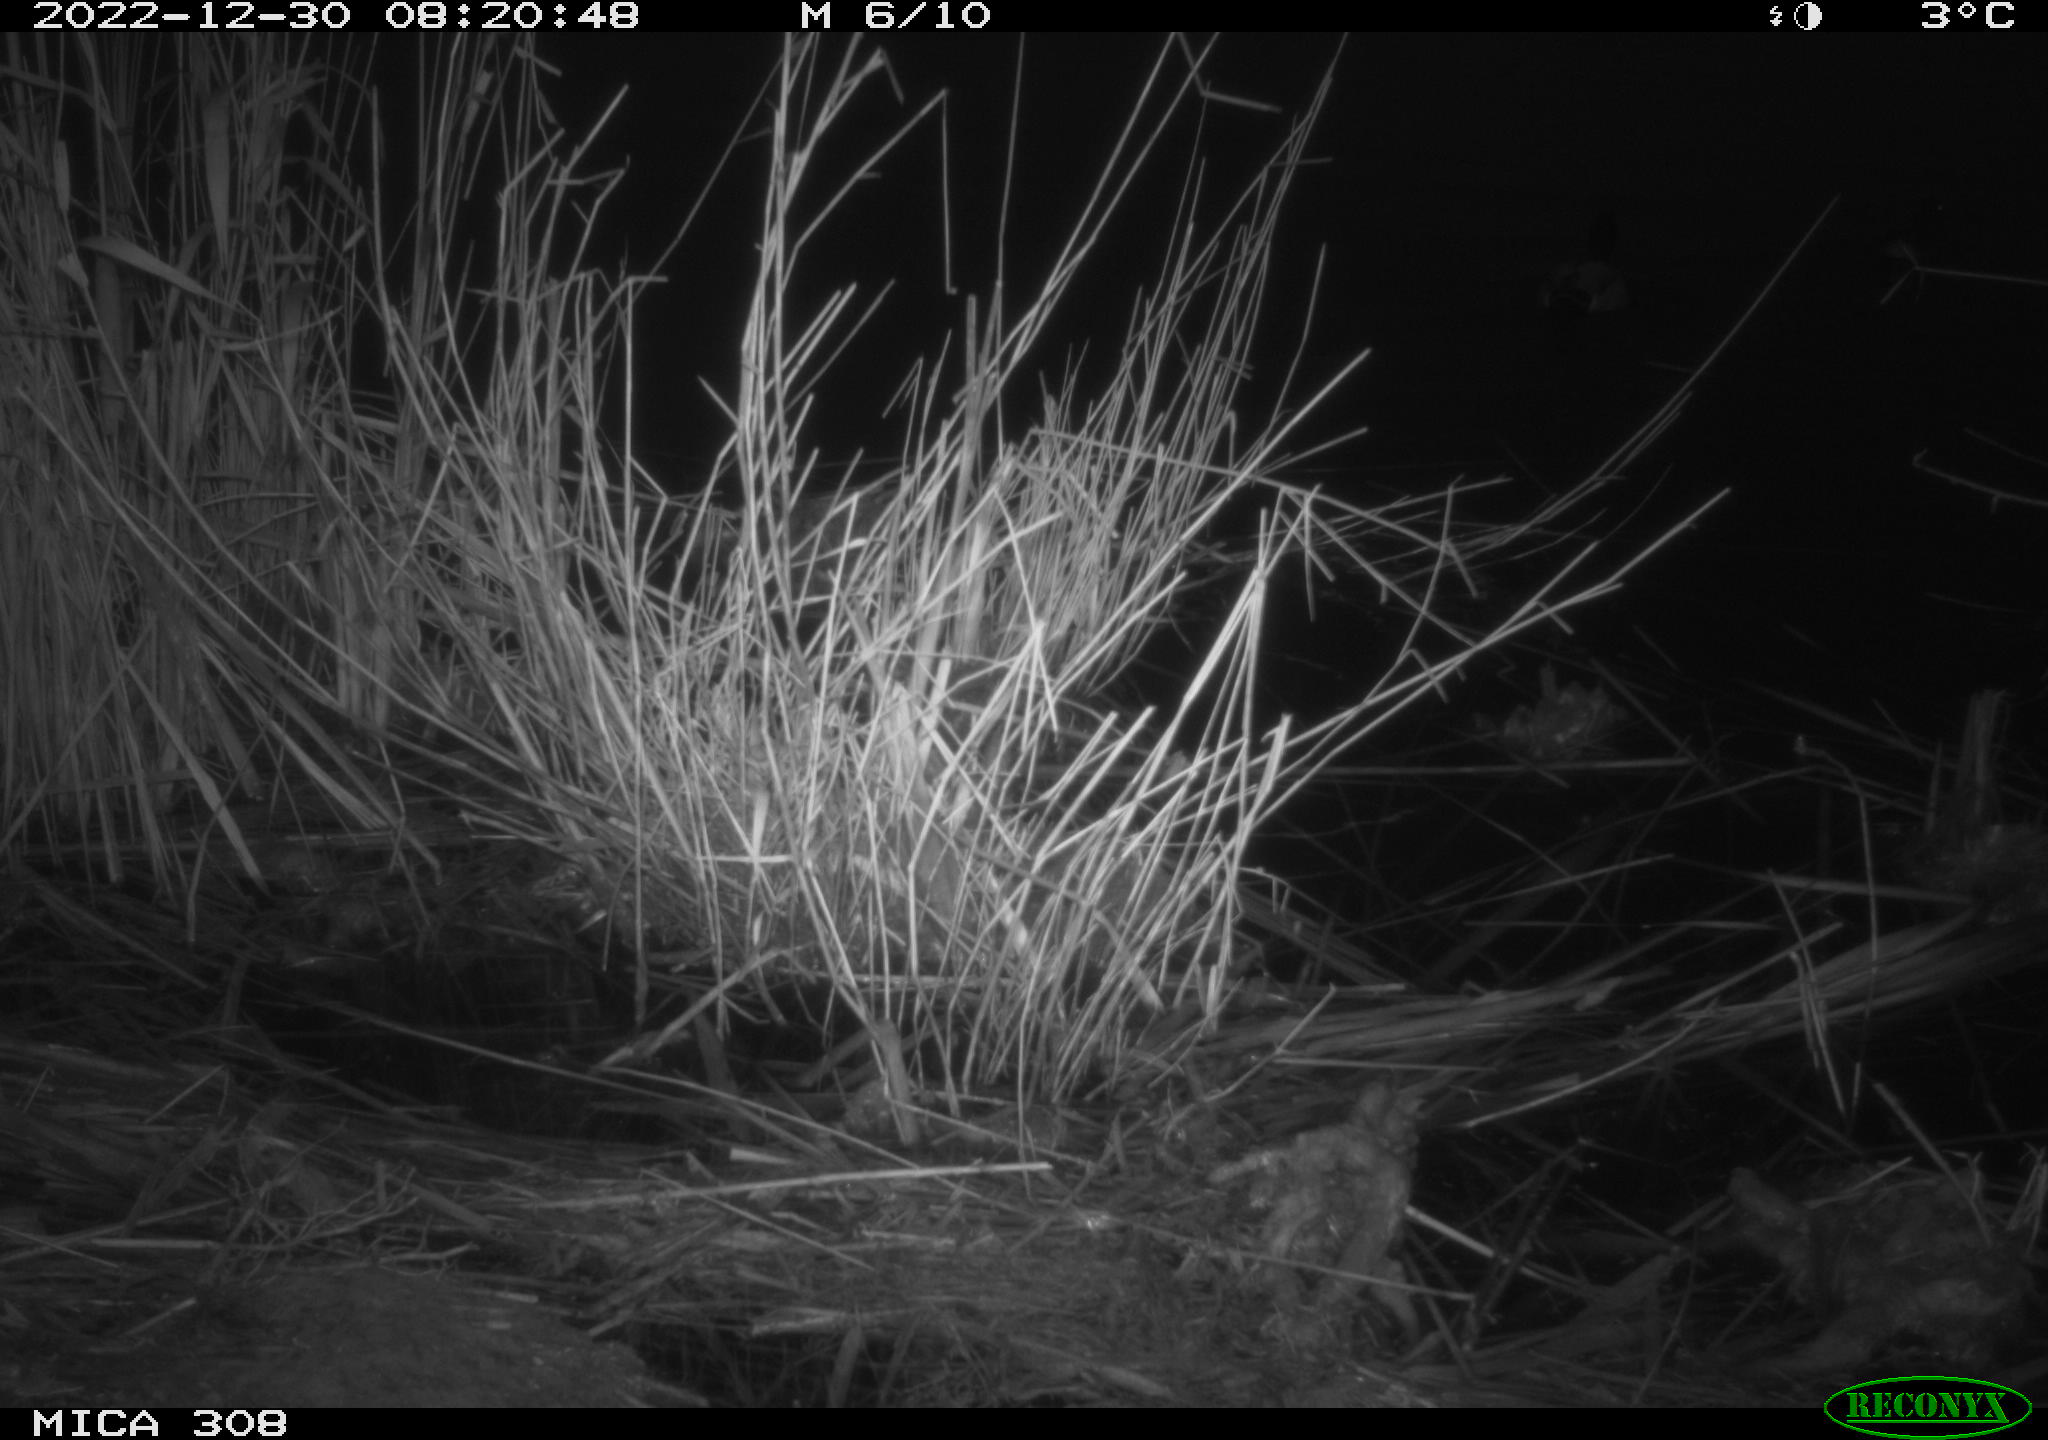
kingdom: Animalia
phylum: Chordata
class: Aves
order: Anseriformes
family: Anatidae
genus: Anas
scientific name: Anas
